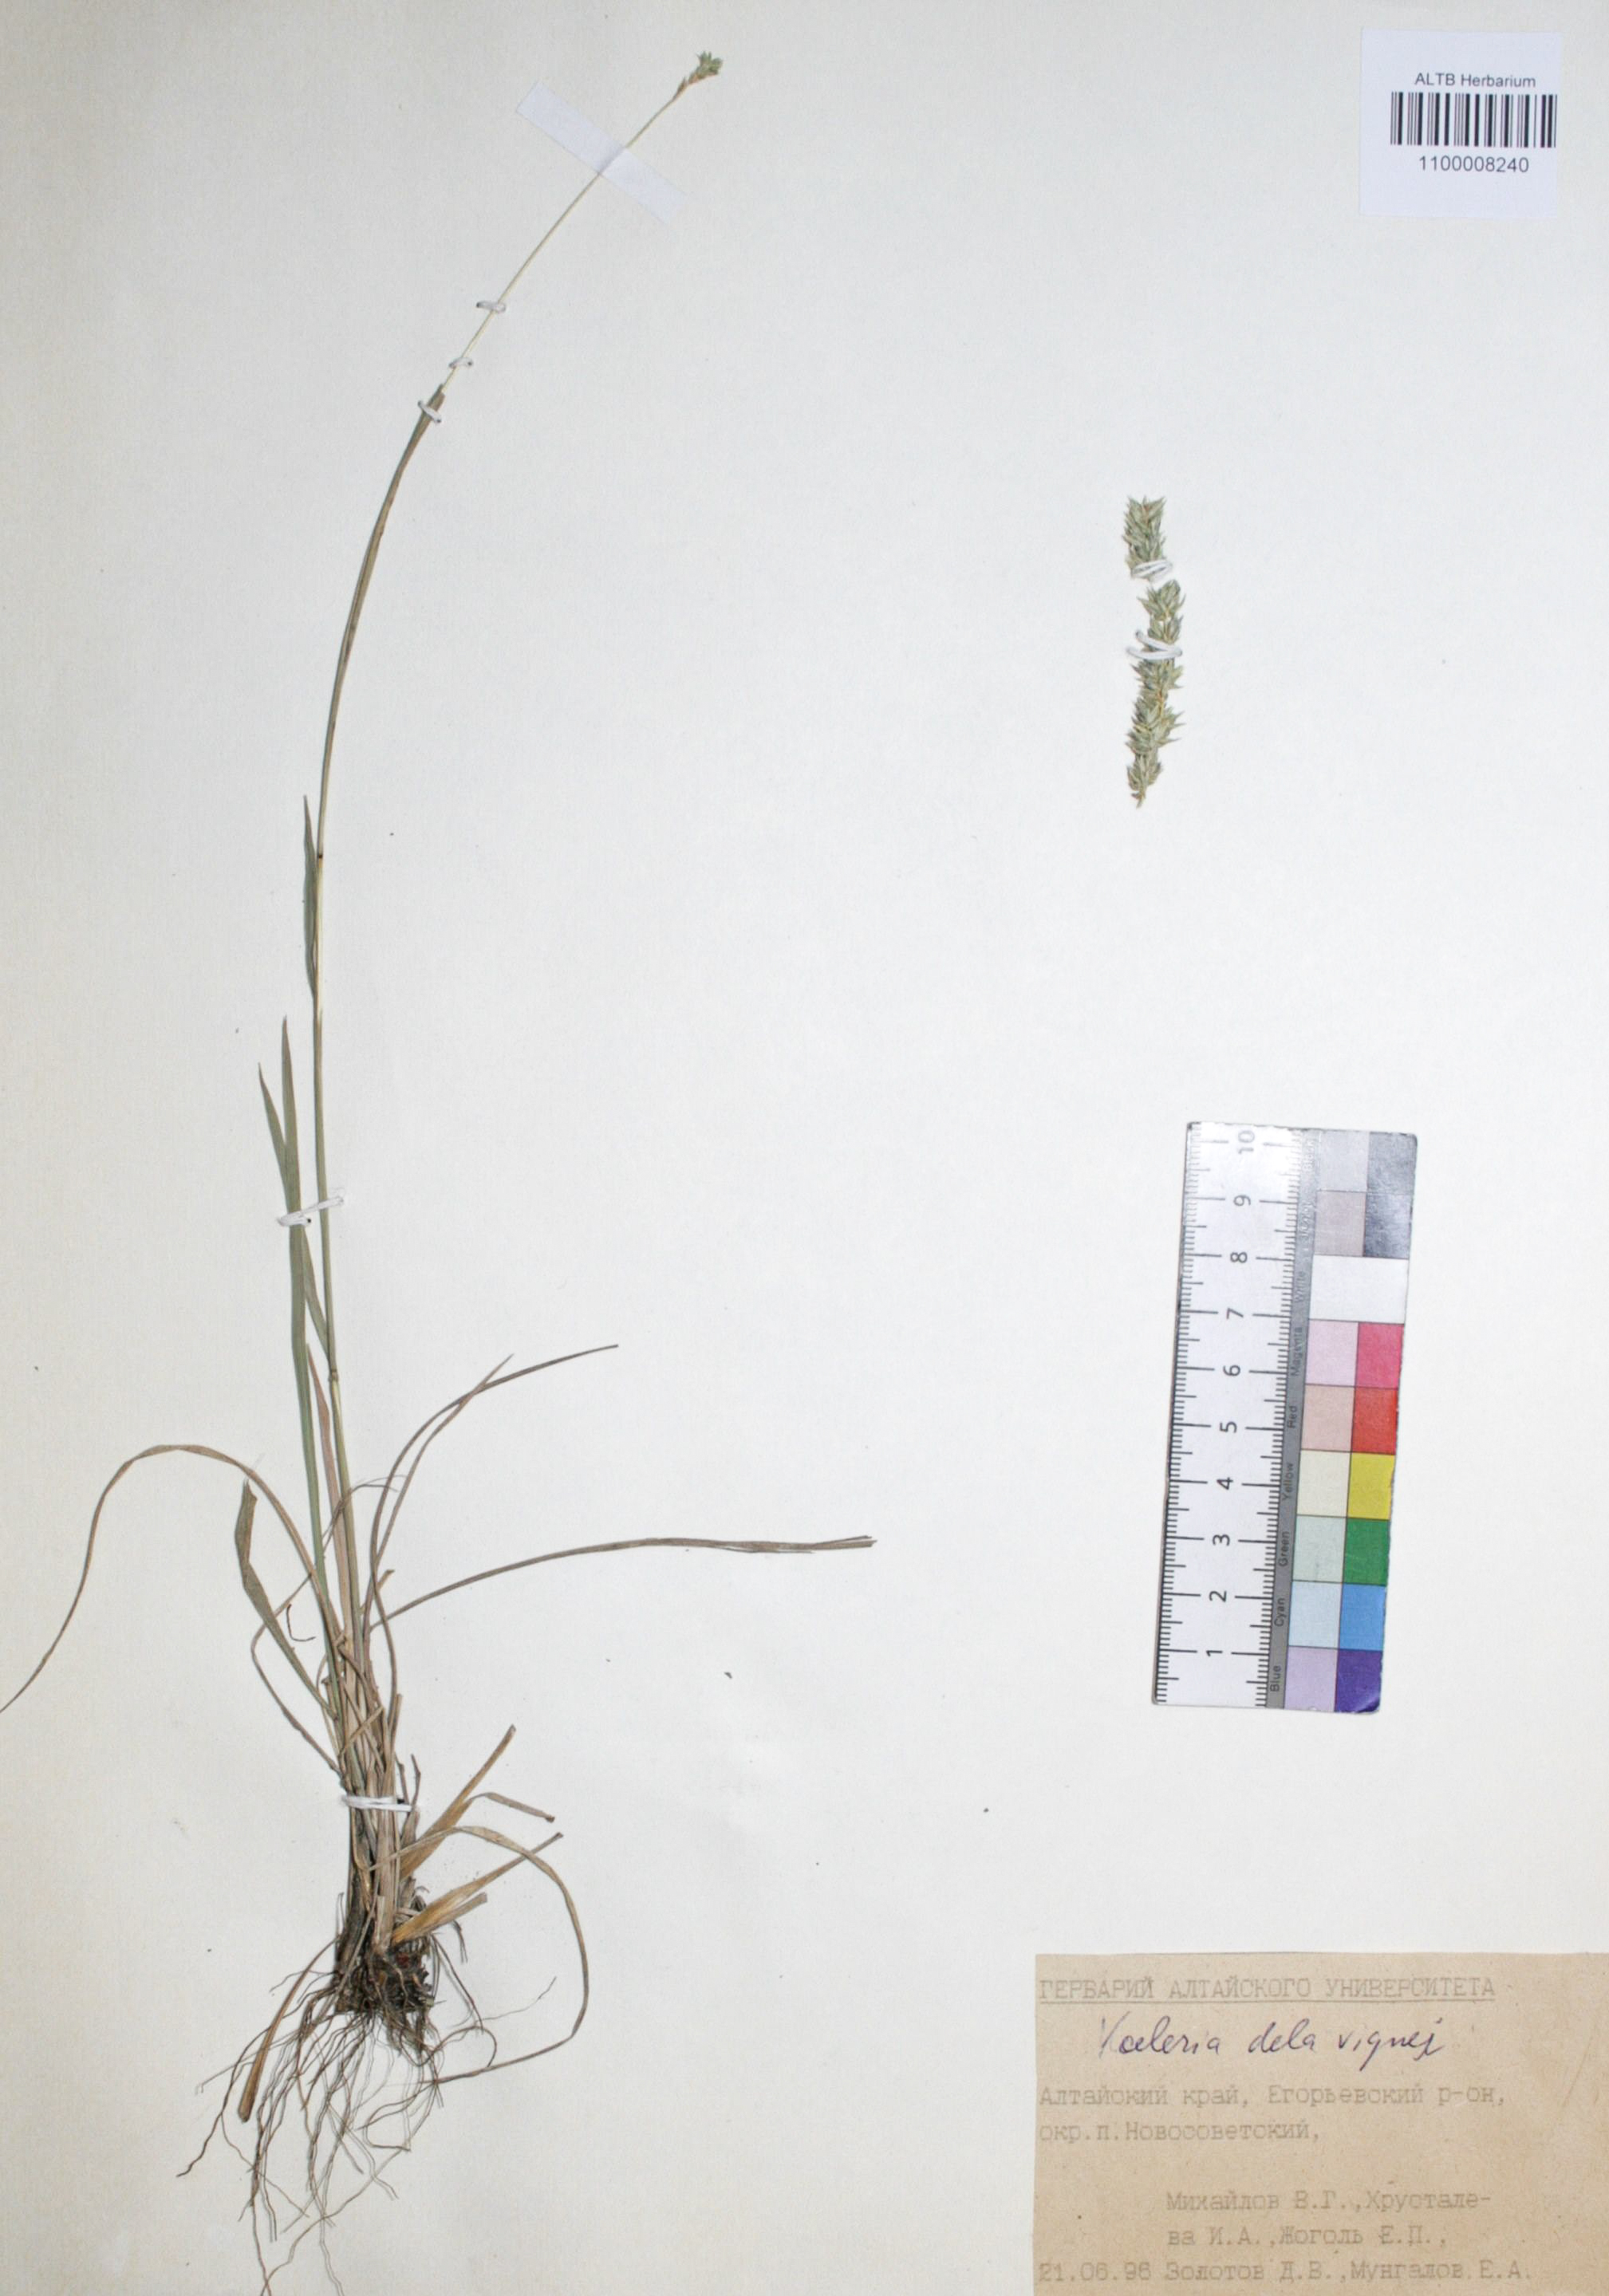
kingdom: Plantae
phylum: Tracheophyta
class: Liliopsida
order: Poales
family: Poaceae
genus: Koeleria
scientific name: Koeleria delavignei
